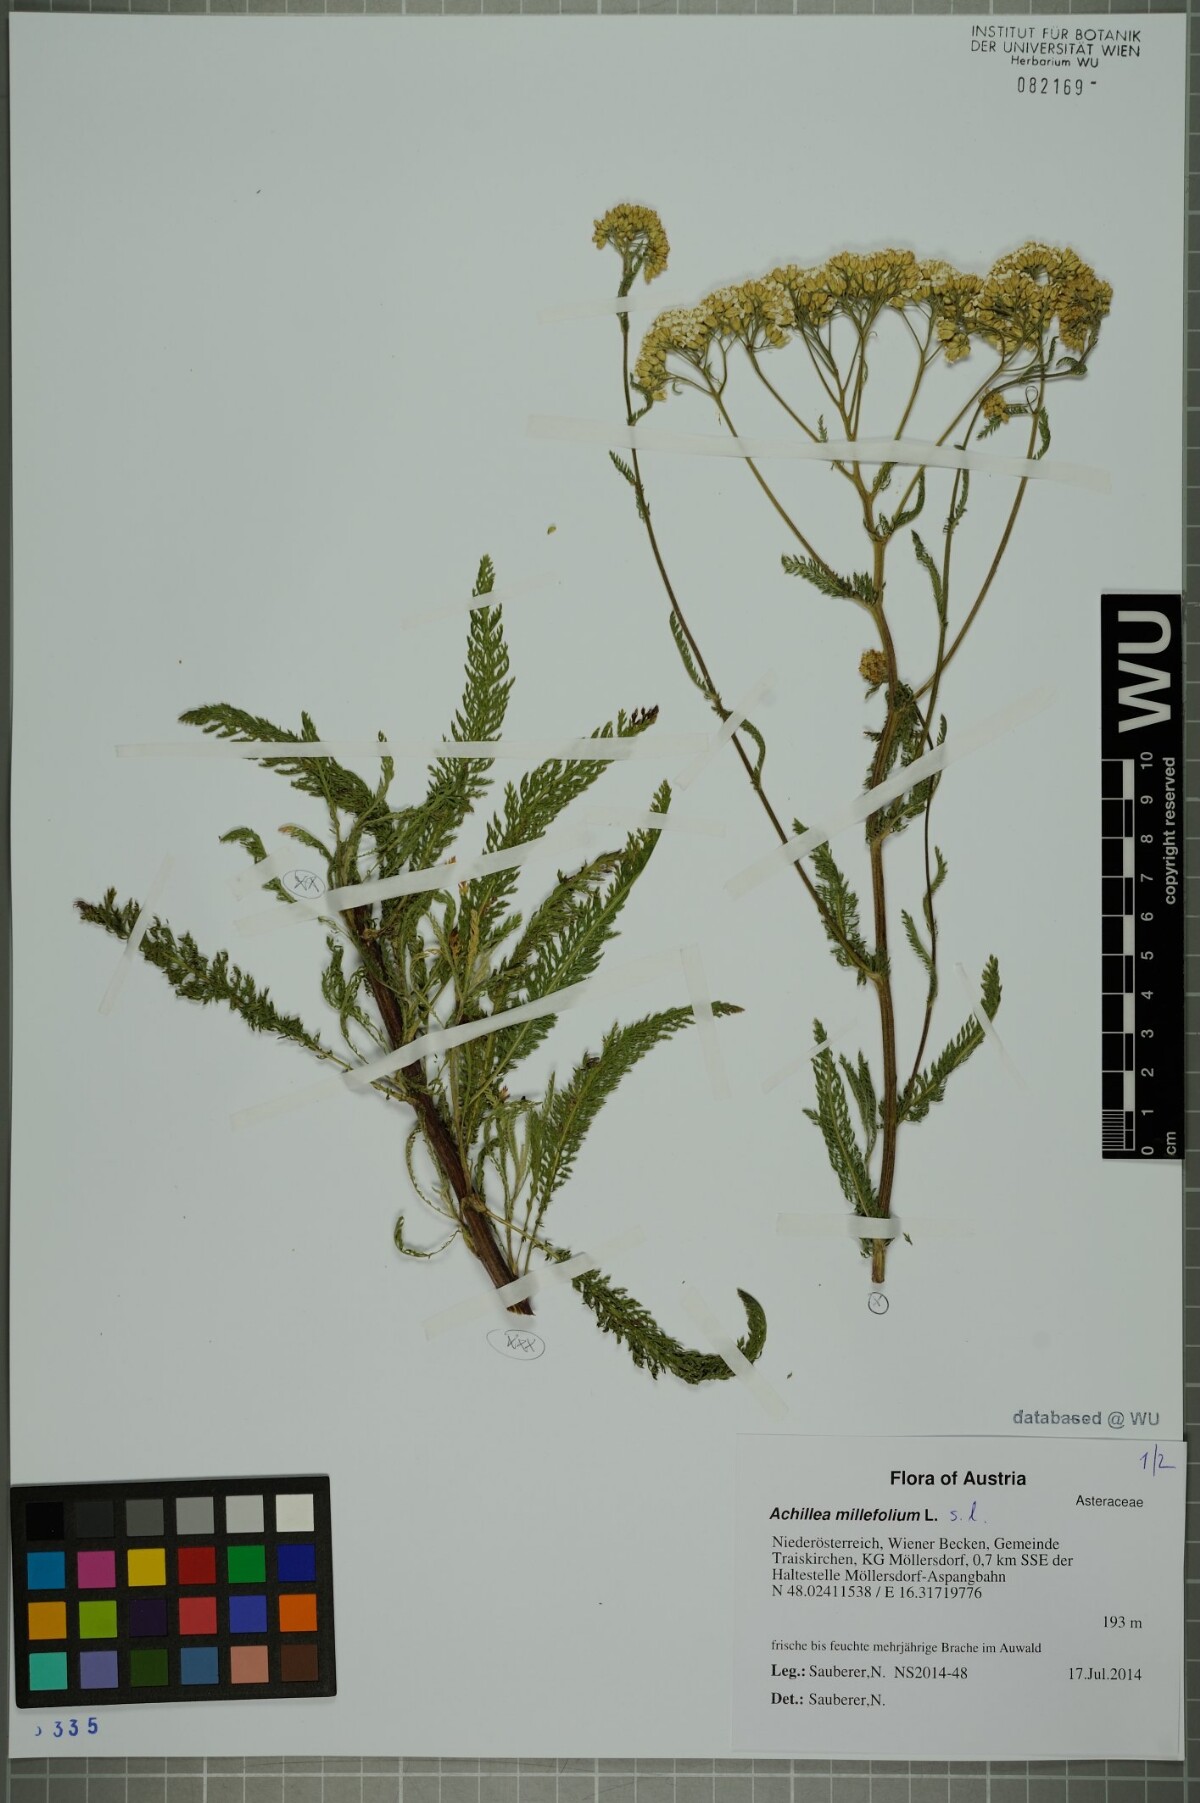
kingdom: Plantae
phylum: Tracheophyta
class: Magnoliopsida
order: Asterales
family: Asteraceae
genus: Achillea
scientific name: Achillea millefolium
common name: Yarrow
